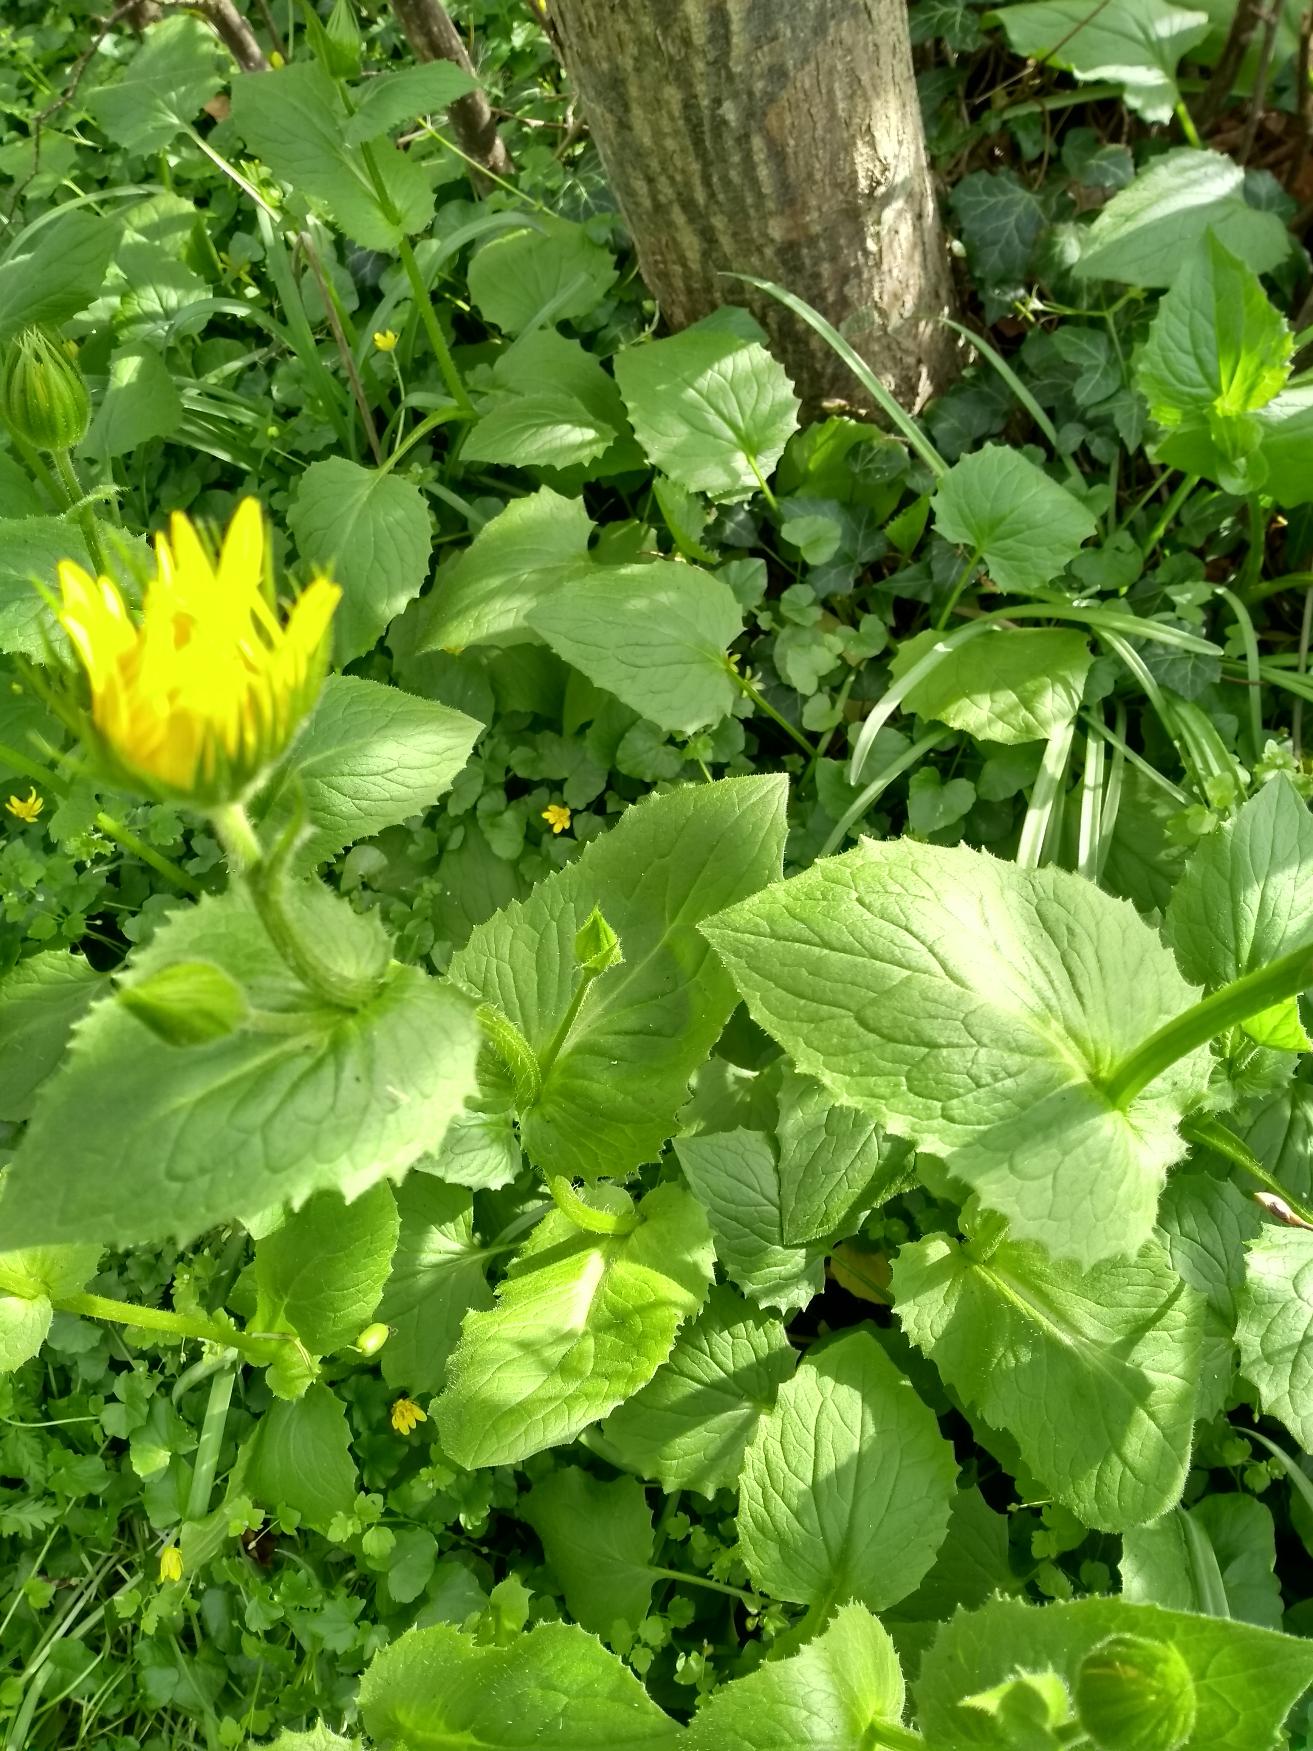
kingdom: Plantae
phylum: Tracheophyta
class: Magnoliopsida
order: Asterales
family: Asteraceae
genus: Doronicum
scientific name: Doronicum pardalianches
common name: Hjertebladet gemserod
